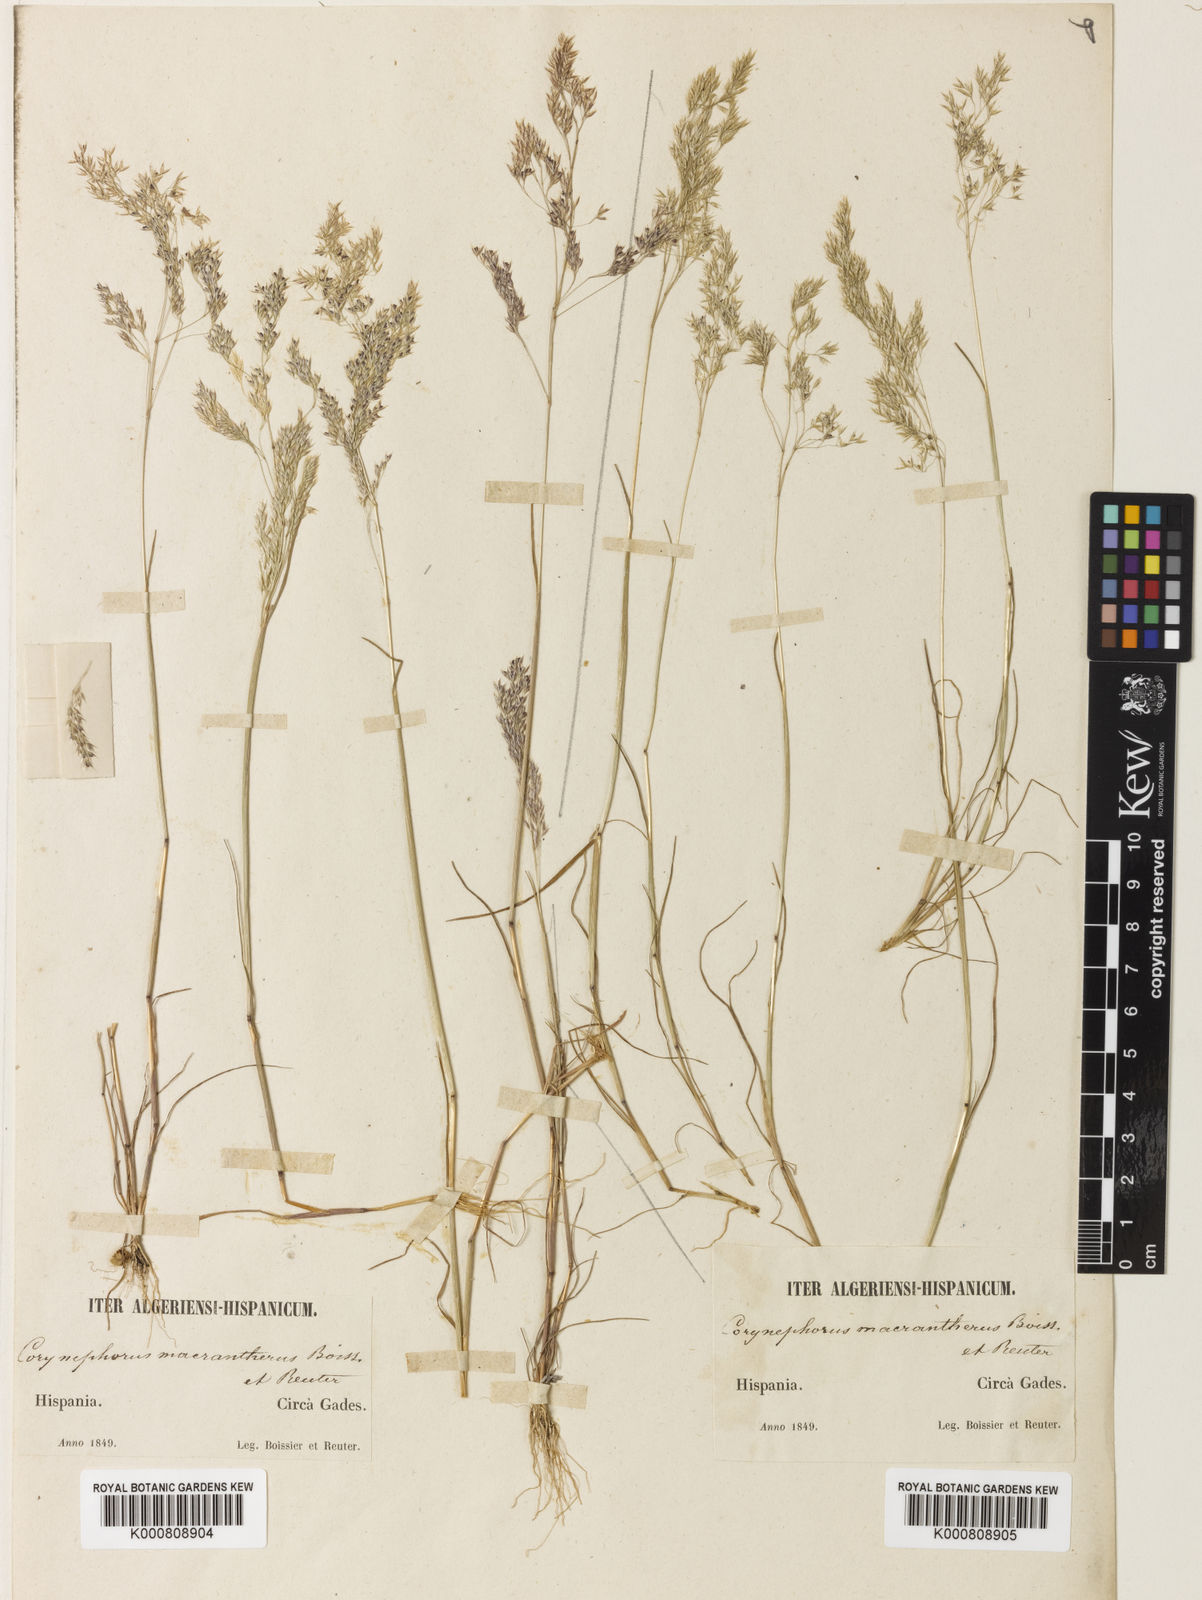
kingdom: Plantae
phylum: Tracheophyta
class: Liliopsida
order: Poales
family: Poaceae
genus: Corynephorus
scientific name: Corynephorus macrantherus
